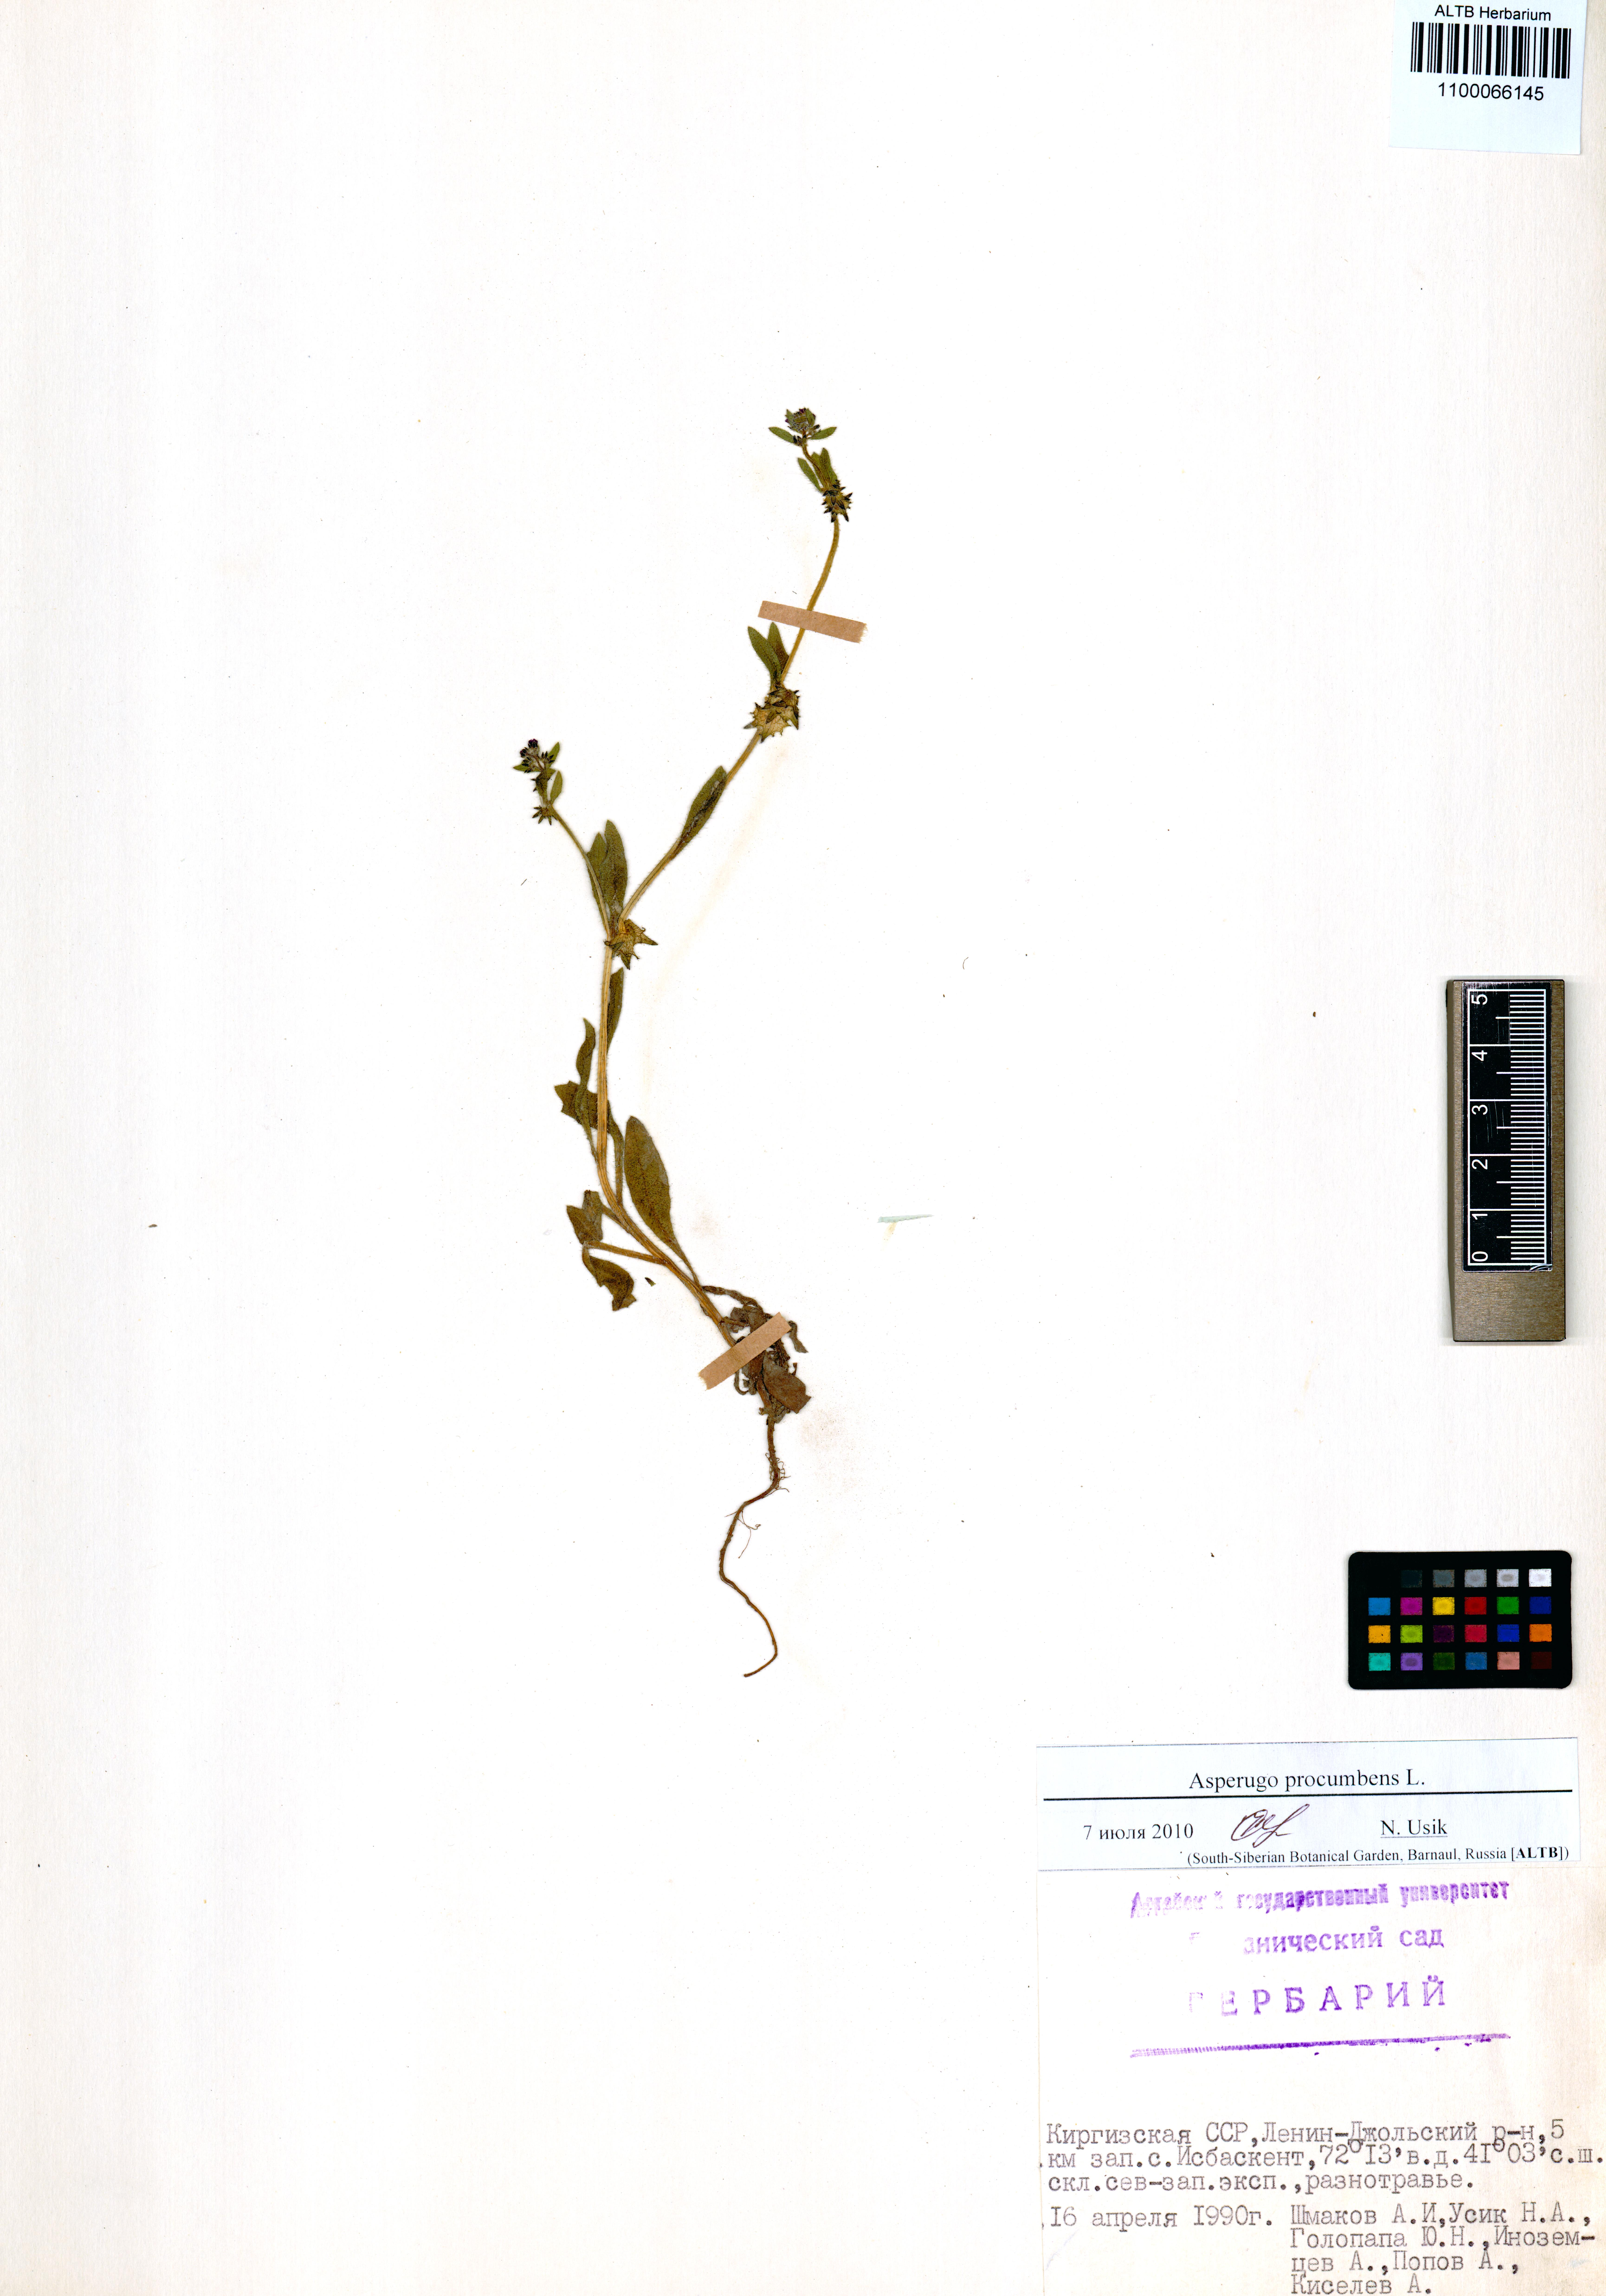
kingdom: Plantae
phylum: Tracheophyta
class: Magnoliopsida
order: Boraginales
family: Boraginaceae
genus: Asperugo
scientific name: Asperugo procumbens
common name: Madwort
